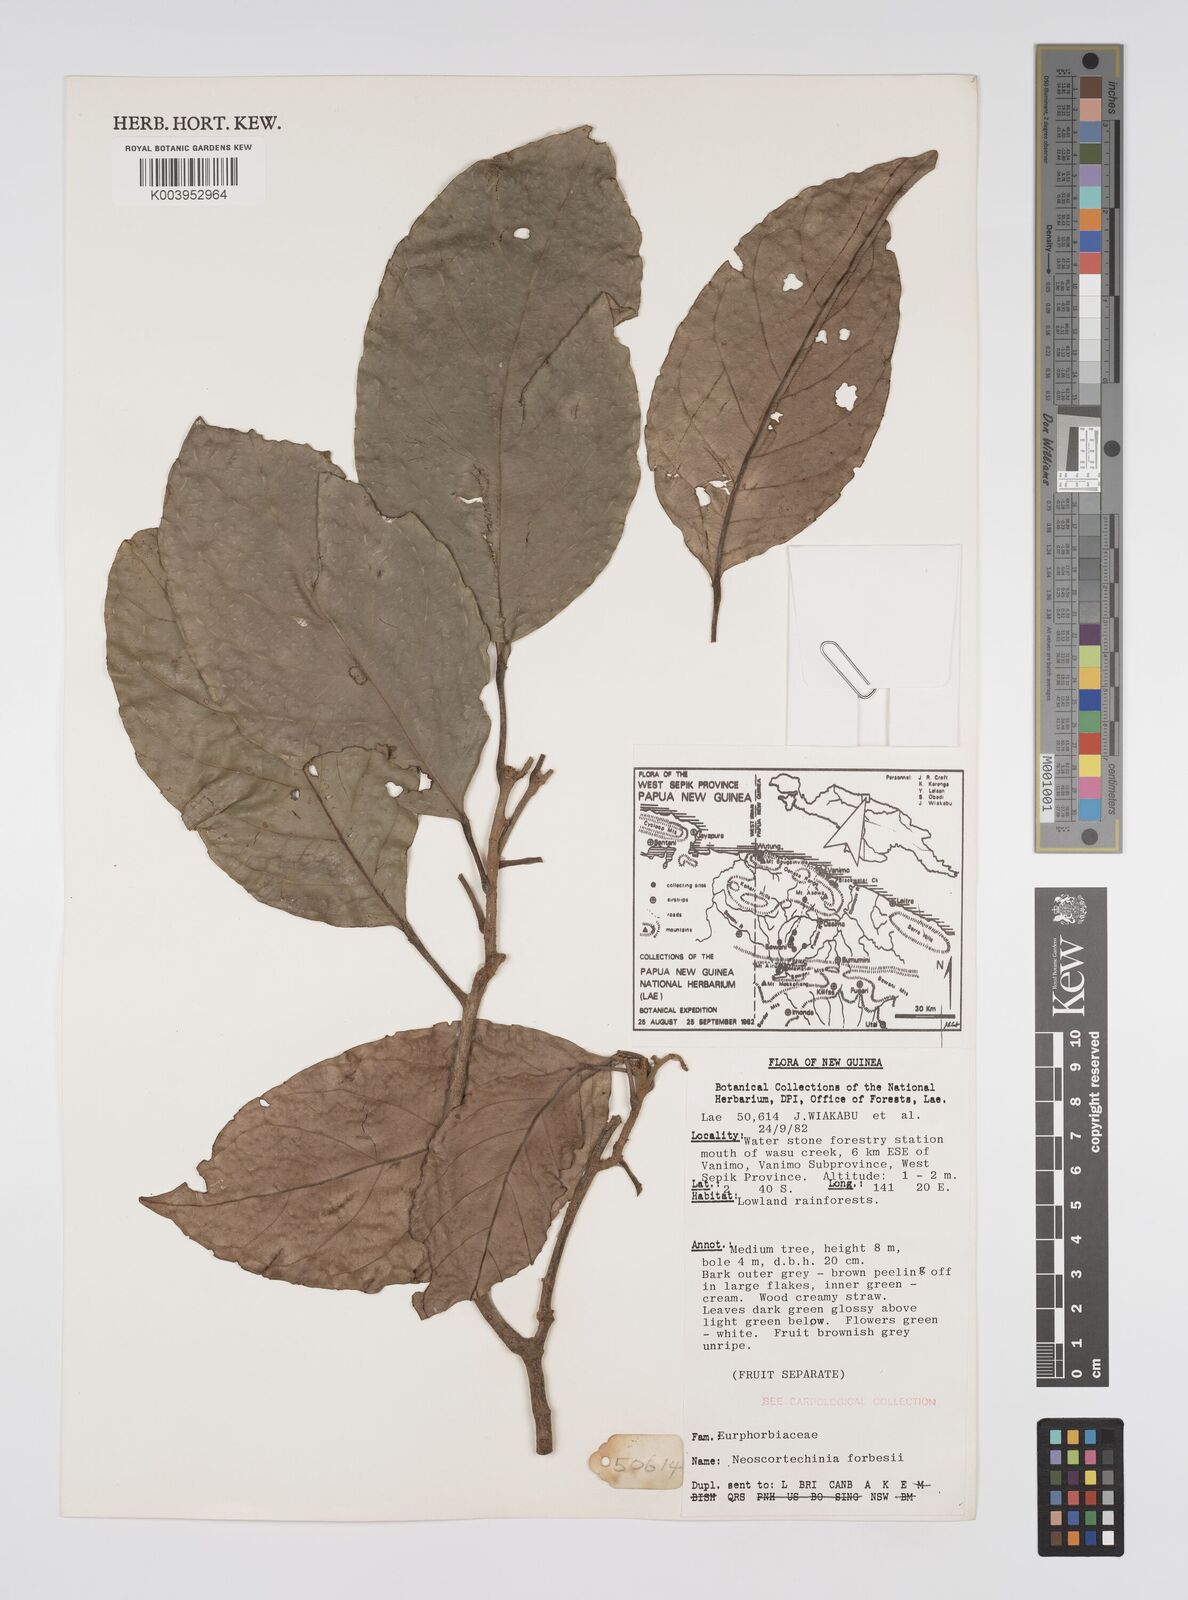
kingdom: Plantae
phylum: Tracheophyta
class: Magnoliopsida
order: Malpighiales
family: Euphorbiaceae
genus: Neoscortechinia
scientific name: Neoscortechinia forbesii
